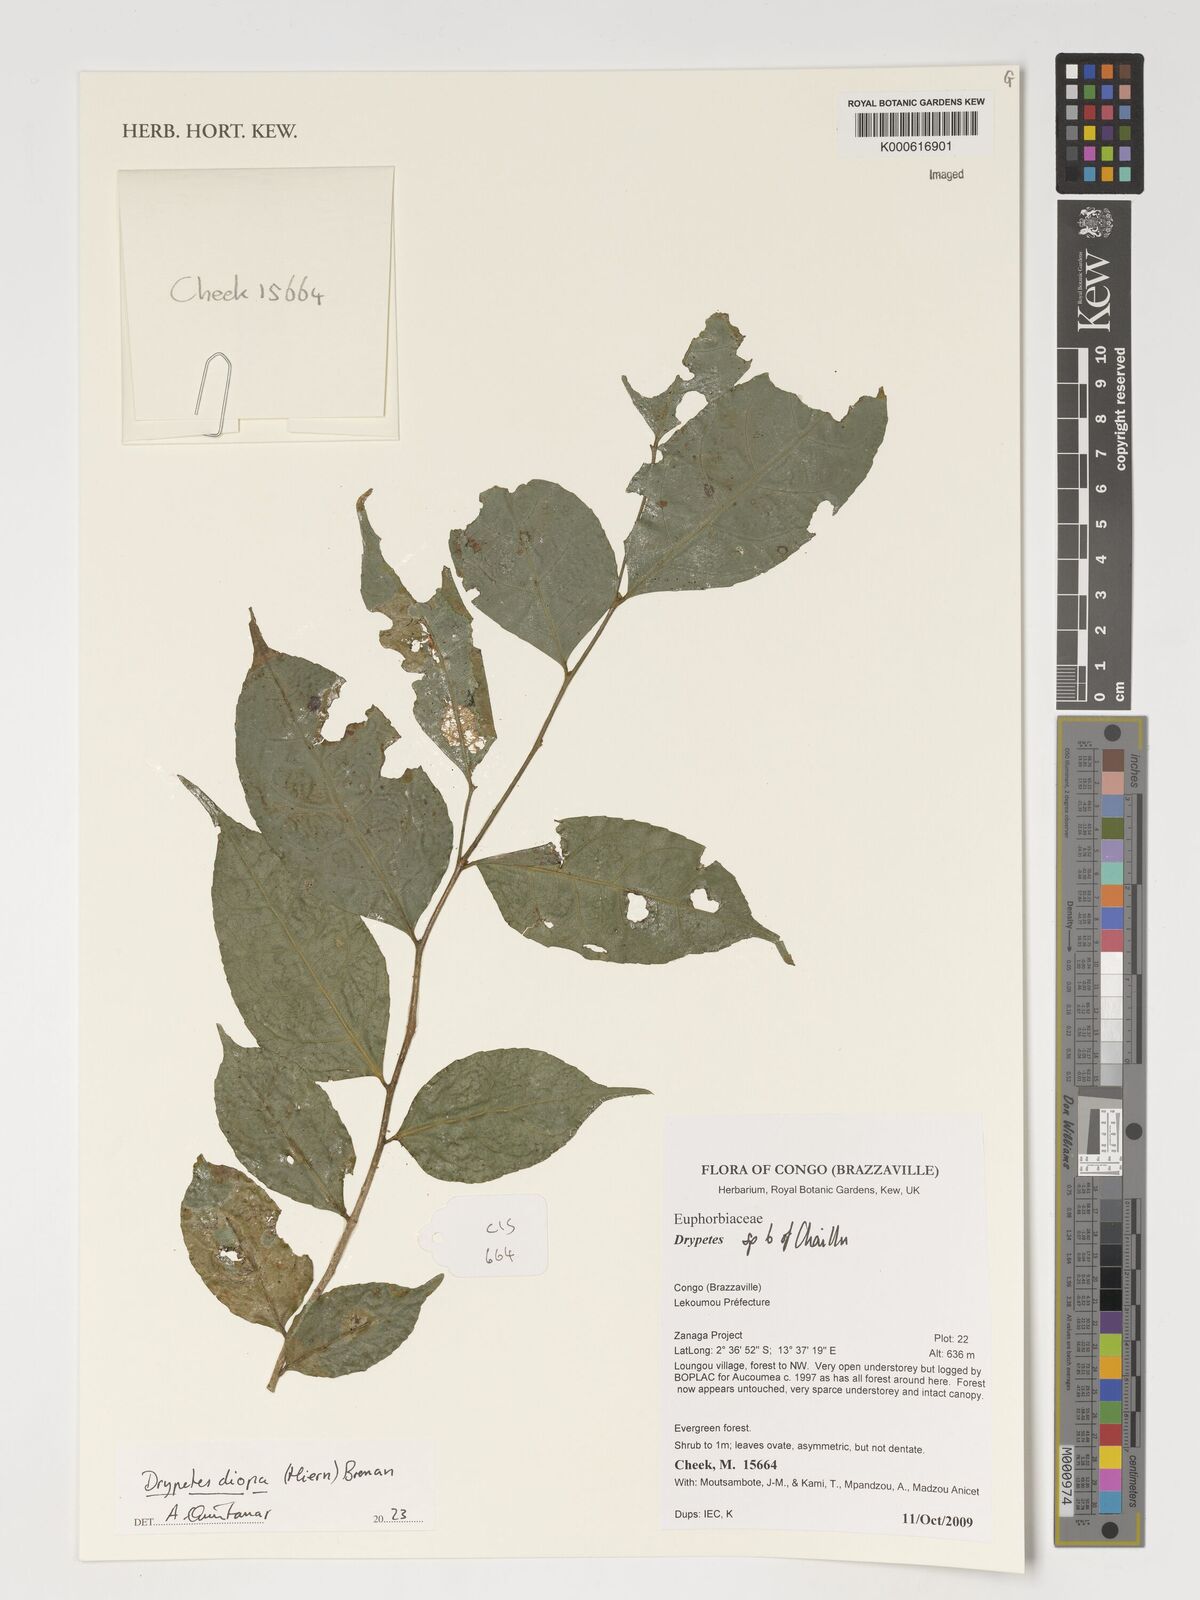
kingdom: Plantae
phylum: Tracheophyta
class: Magnoliopsida
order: Malpighiales
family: Putranjivaceae
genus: Drypetes
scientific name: Drypetes diopa
